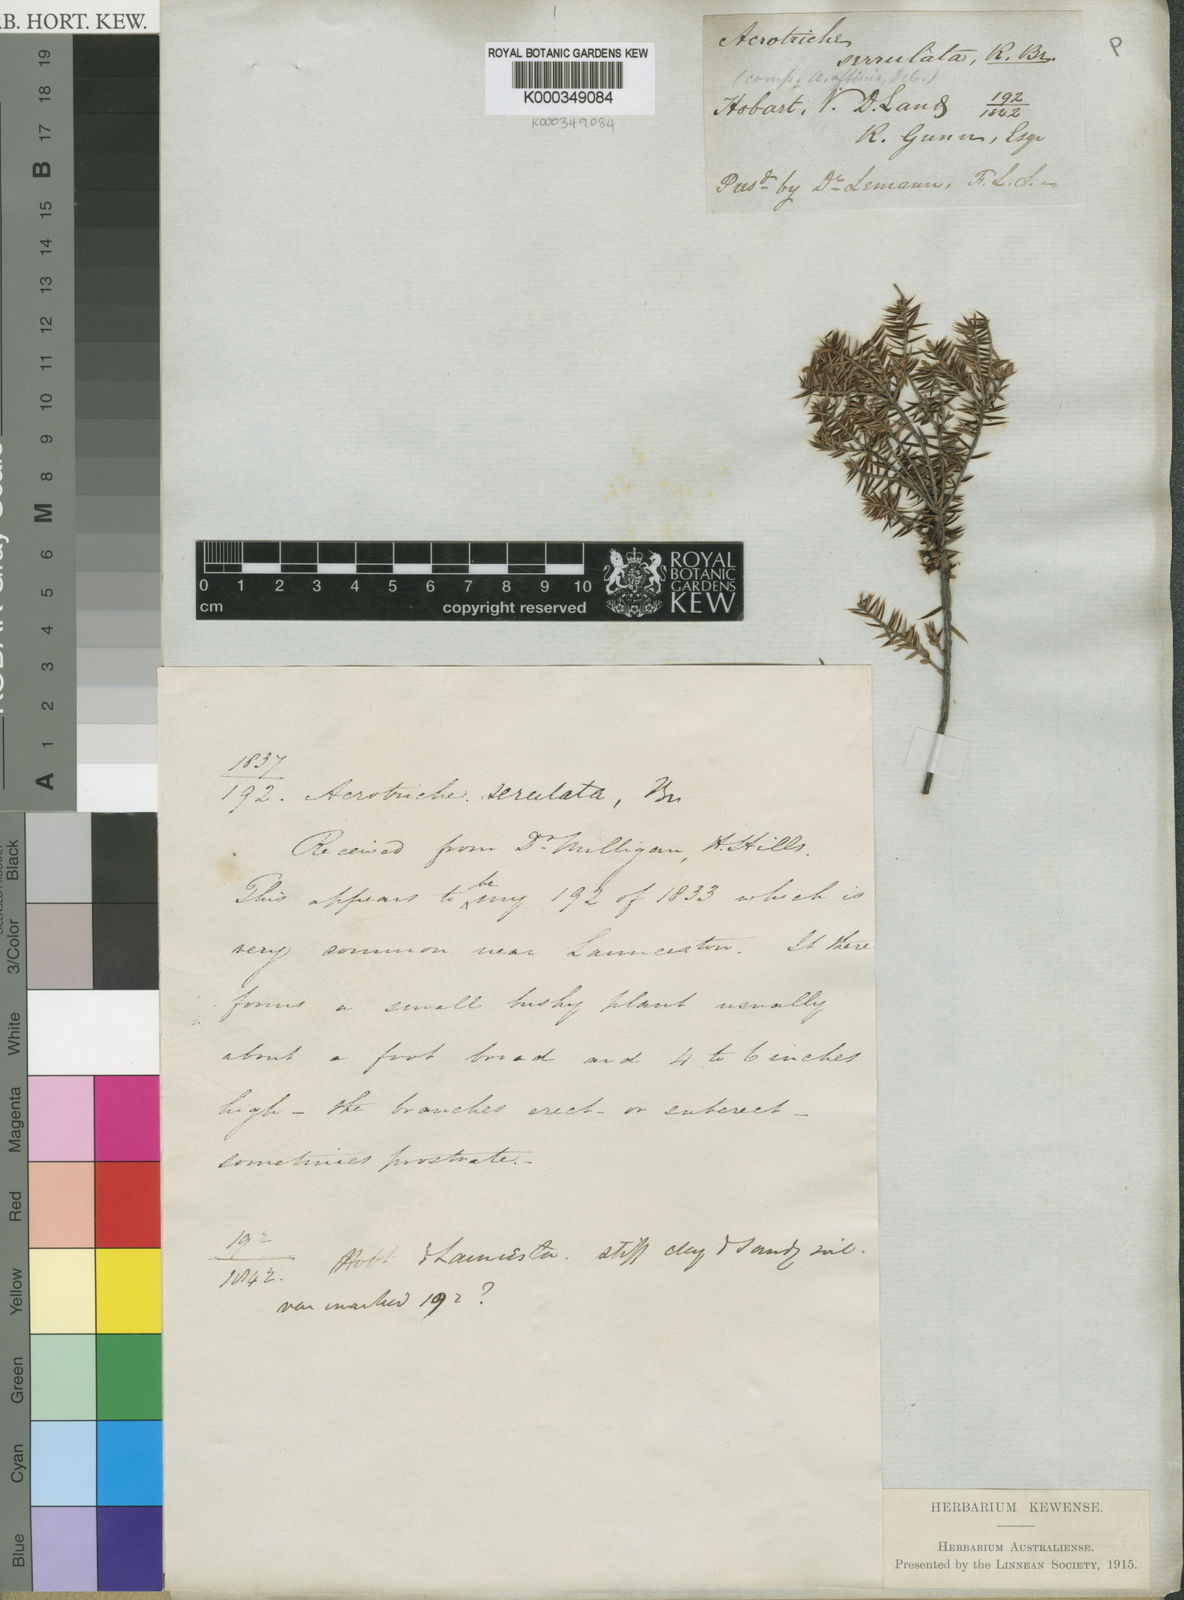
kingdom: Plantae
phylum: Tracheophyta
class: Magnoliopsida
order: Ericales
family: Ericaceae
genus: Acrotriche
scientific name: Acrotriche serrulata
